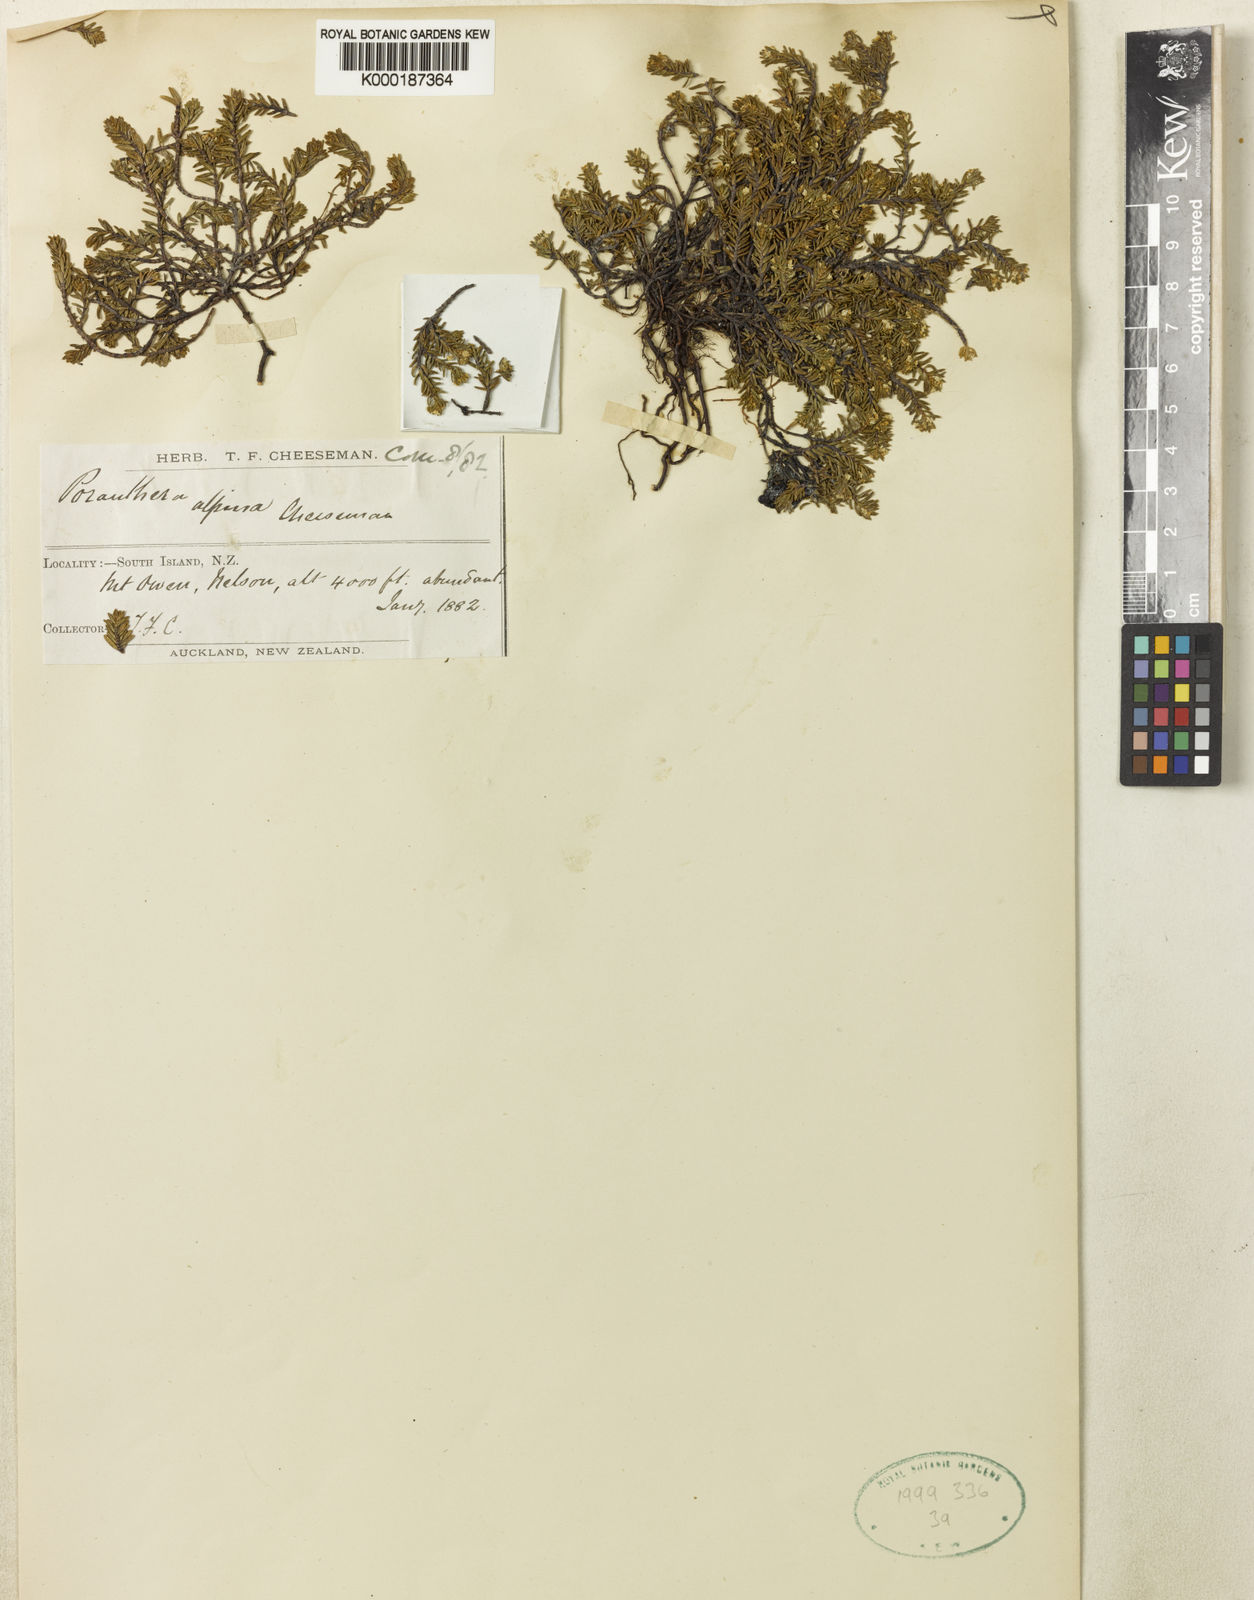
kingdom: Plantae
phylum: Tracheophyta
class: Magnoliopsida
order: Malpighiales
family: Phyllanthaceae
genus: Poranthera
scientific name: Poranthera alpina
